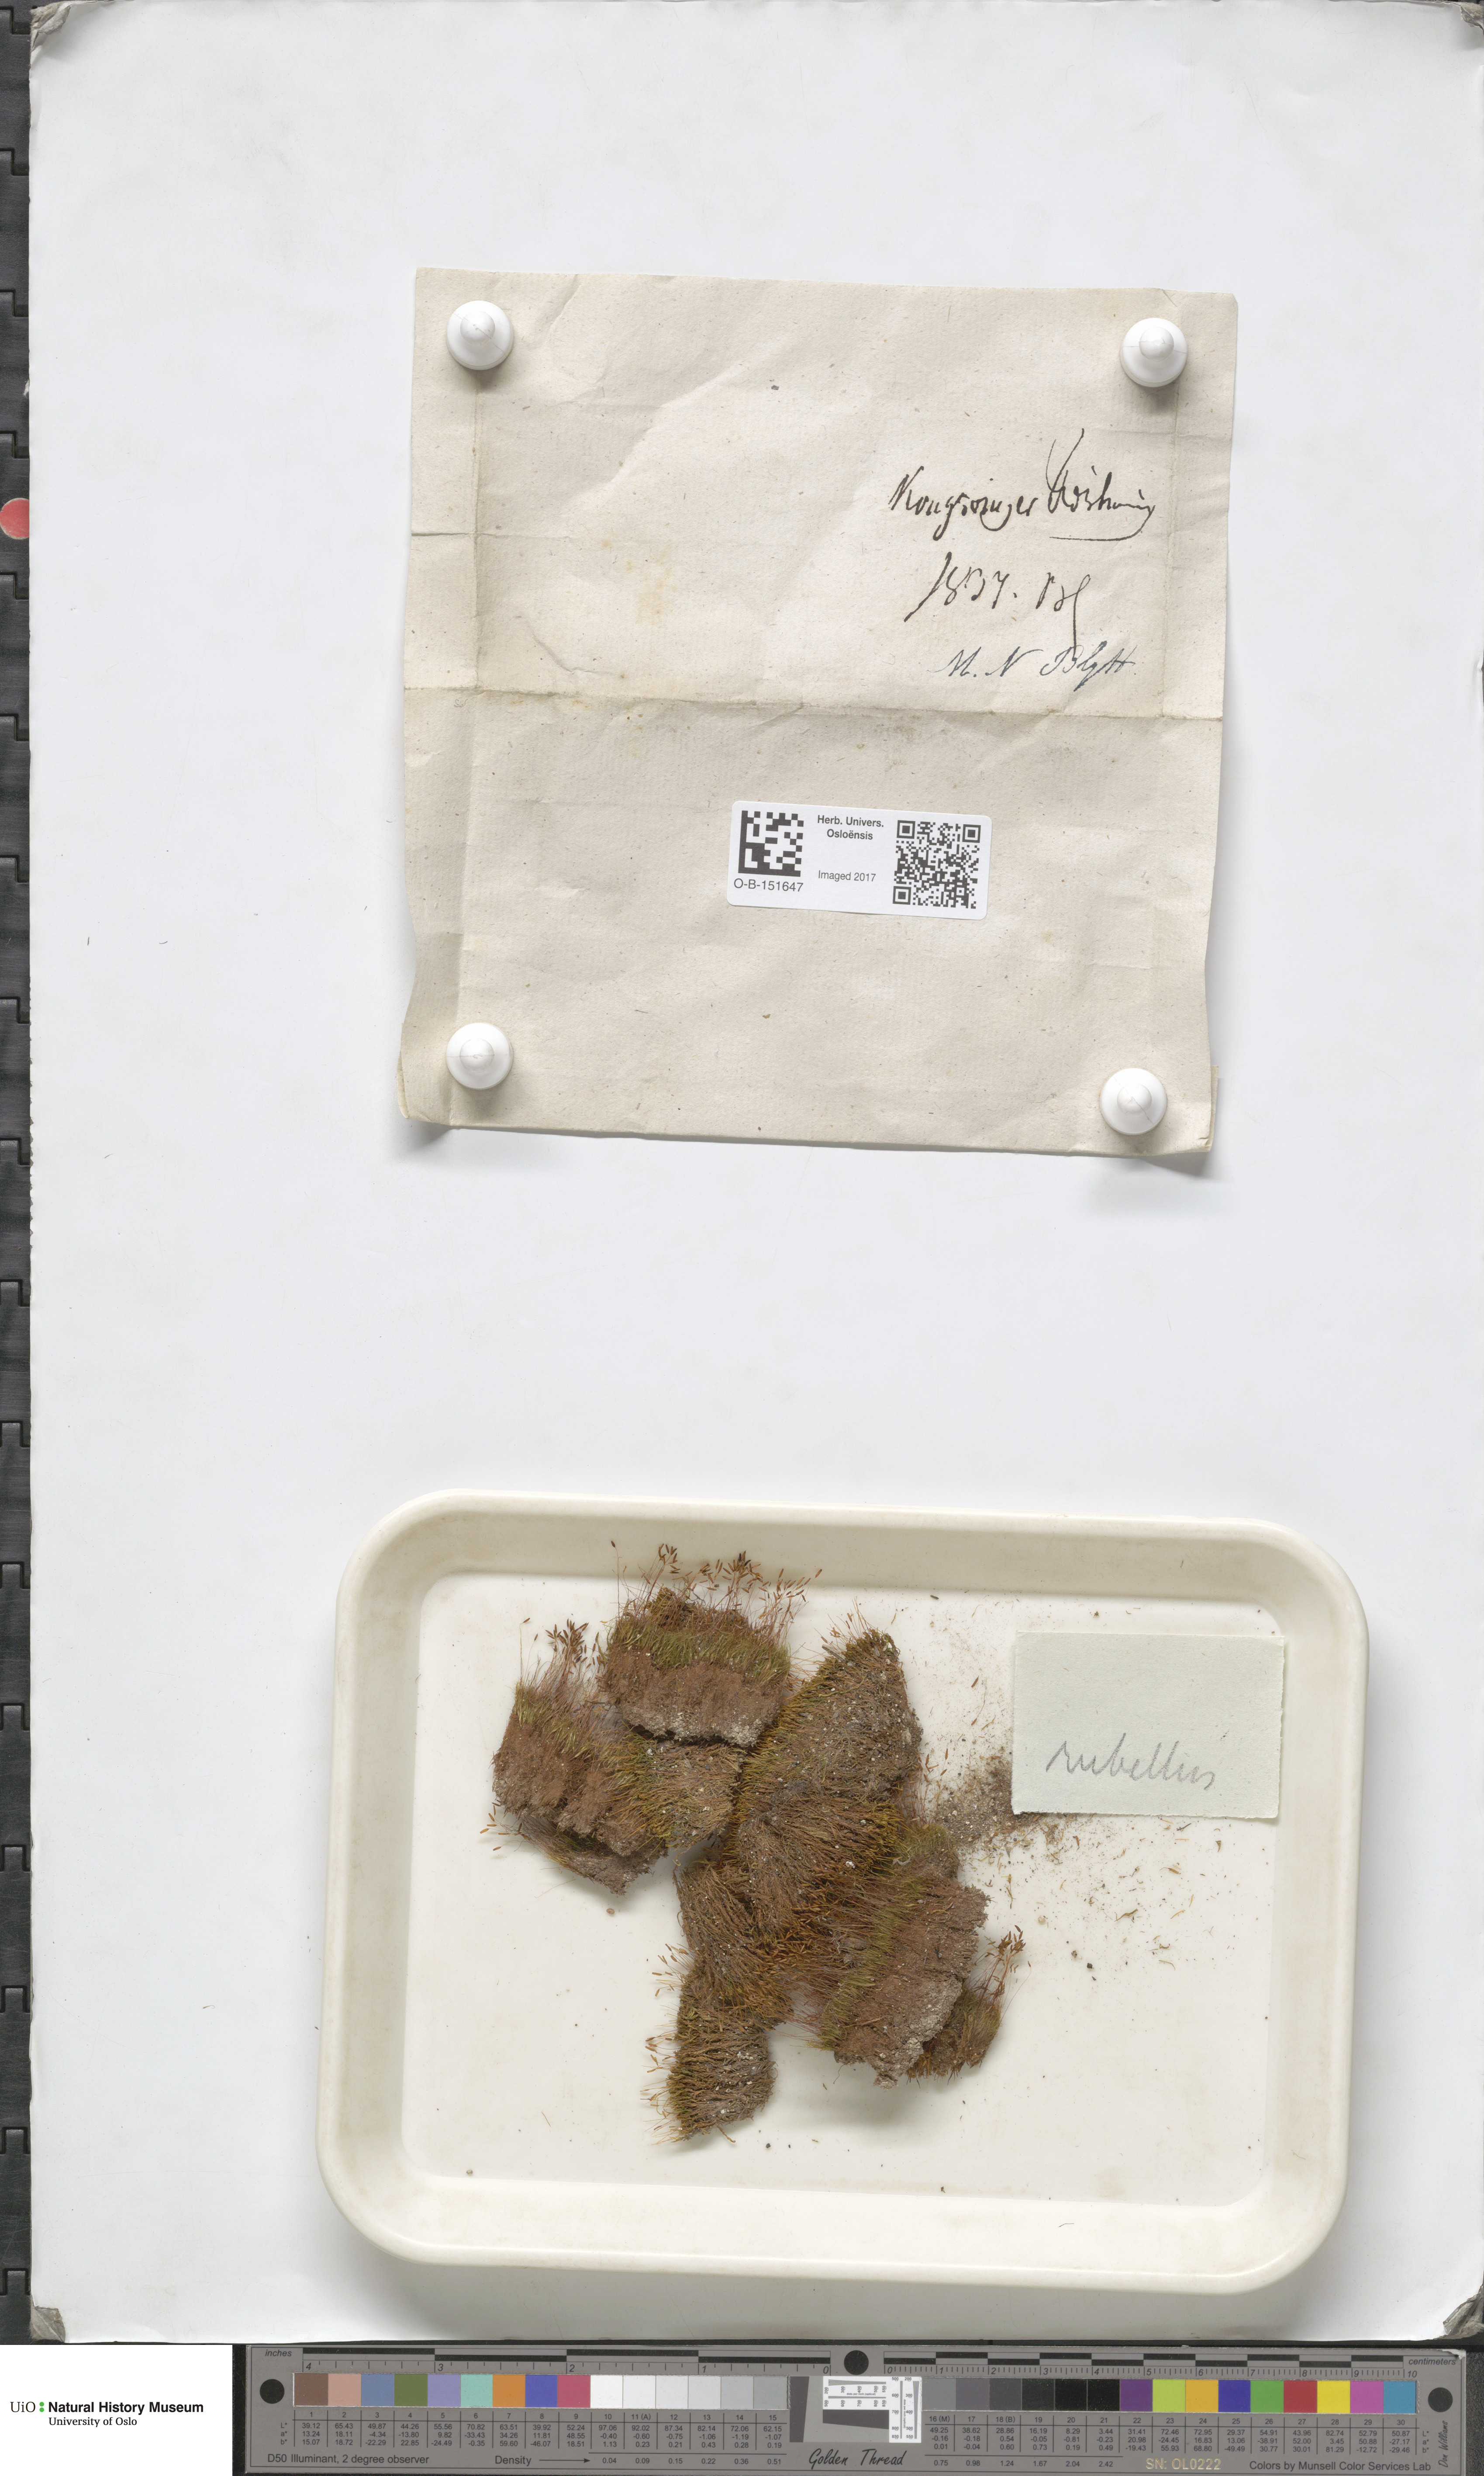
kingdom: Plantae
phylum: Bryophyta
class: Bryopsida
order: Pottiales
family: Pottiaceae
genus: Bryoerythrophyllum
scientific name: Bryoerythrophyllum recurvirostrum
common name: Red beard moss
